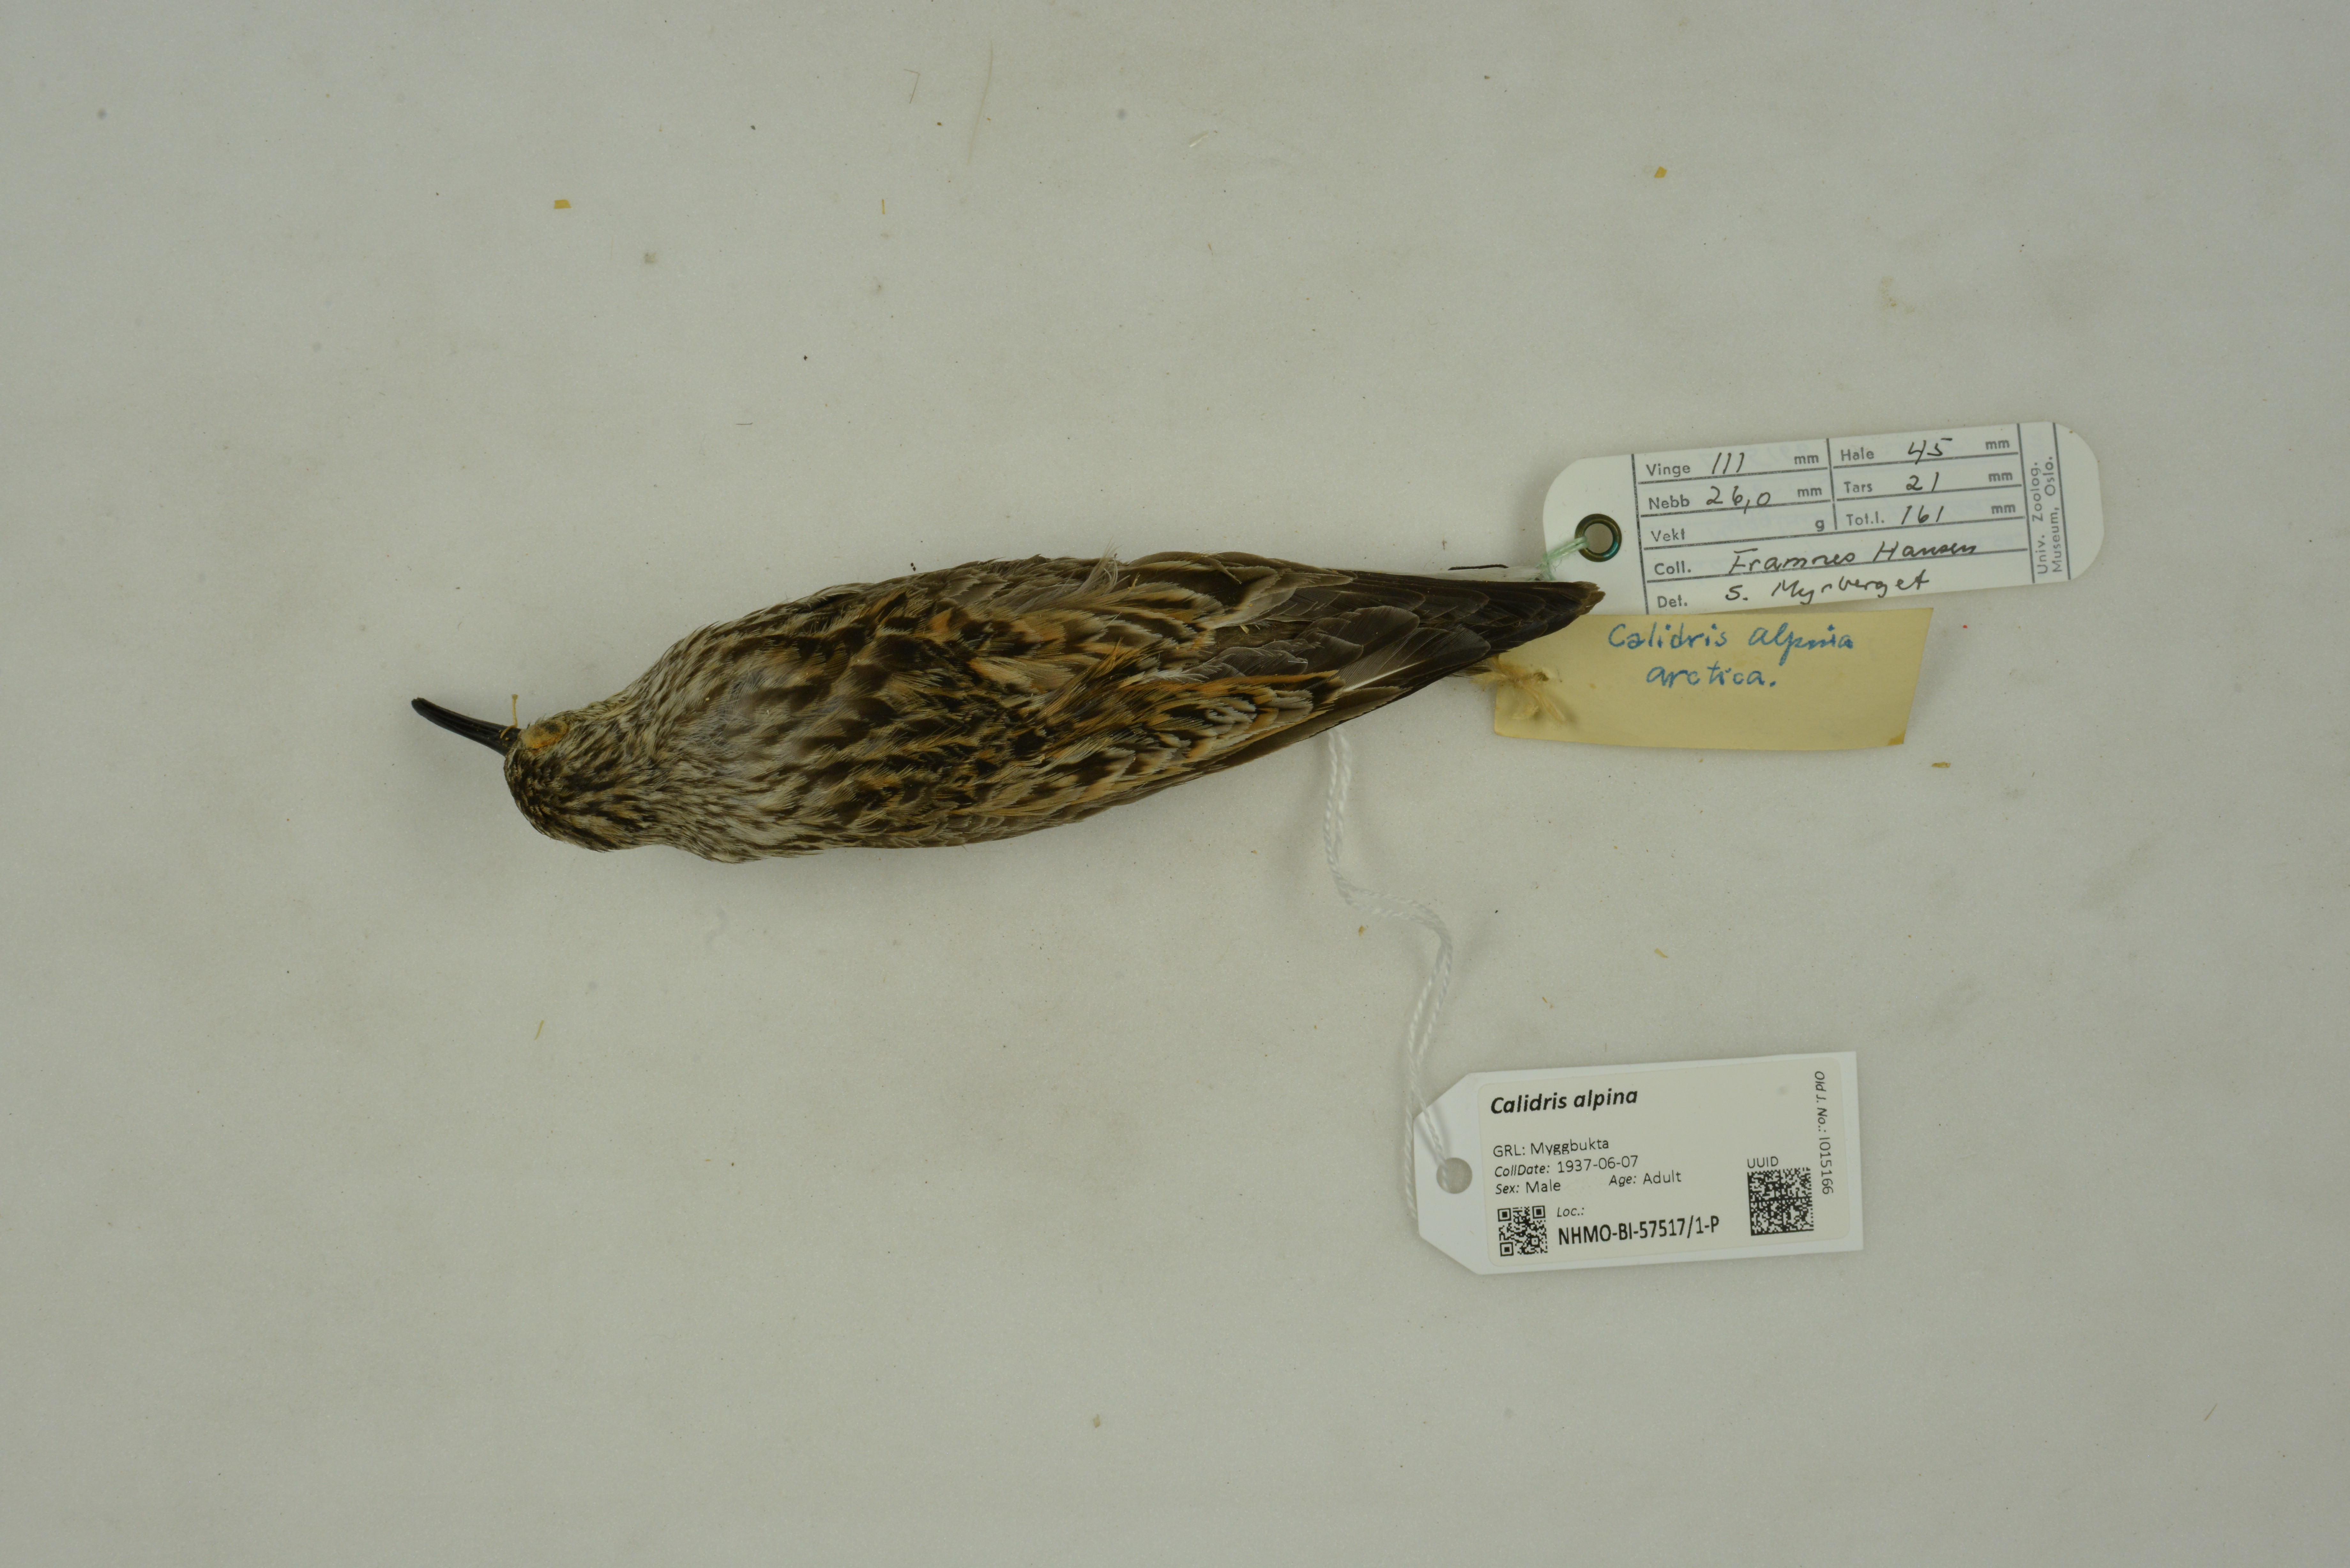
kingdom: Animalia
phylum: Chordata
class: Aves
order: Charadriiformes
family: Scolopacidae
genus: Calidris
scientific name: Calidris alpina
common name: Dunlin
